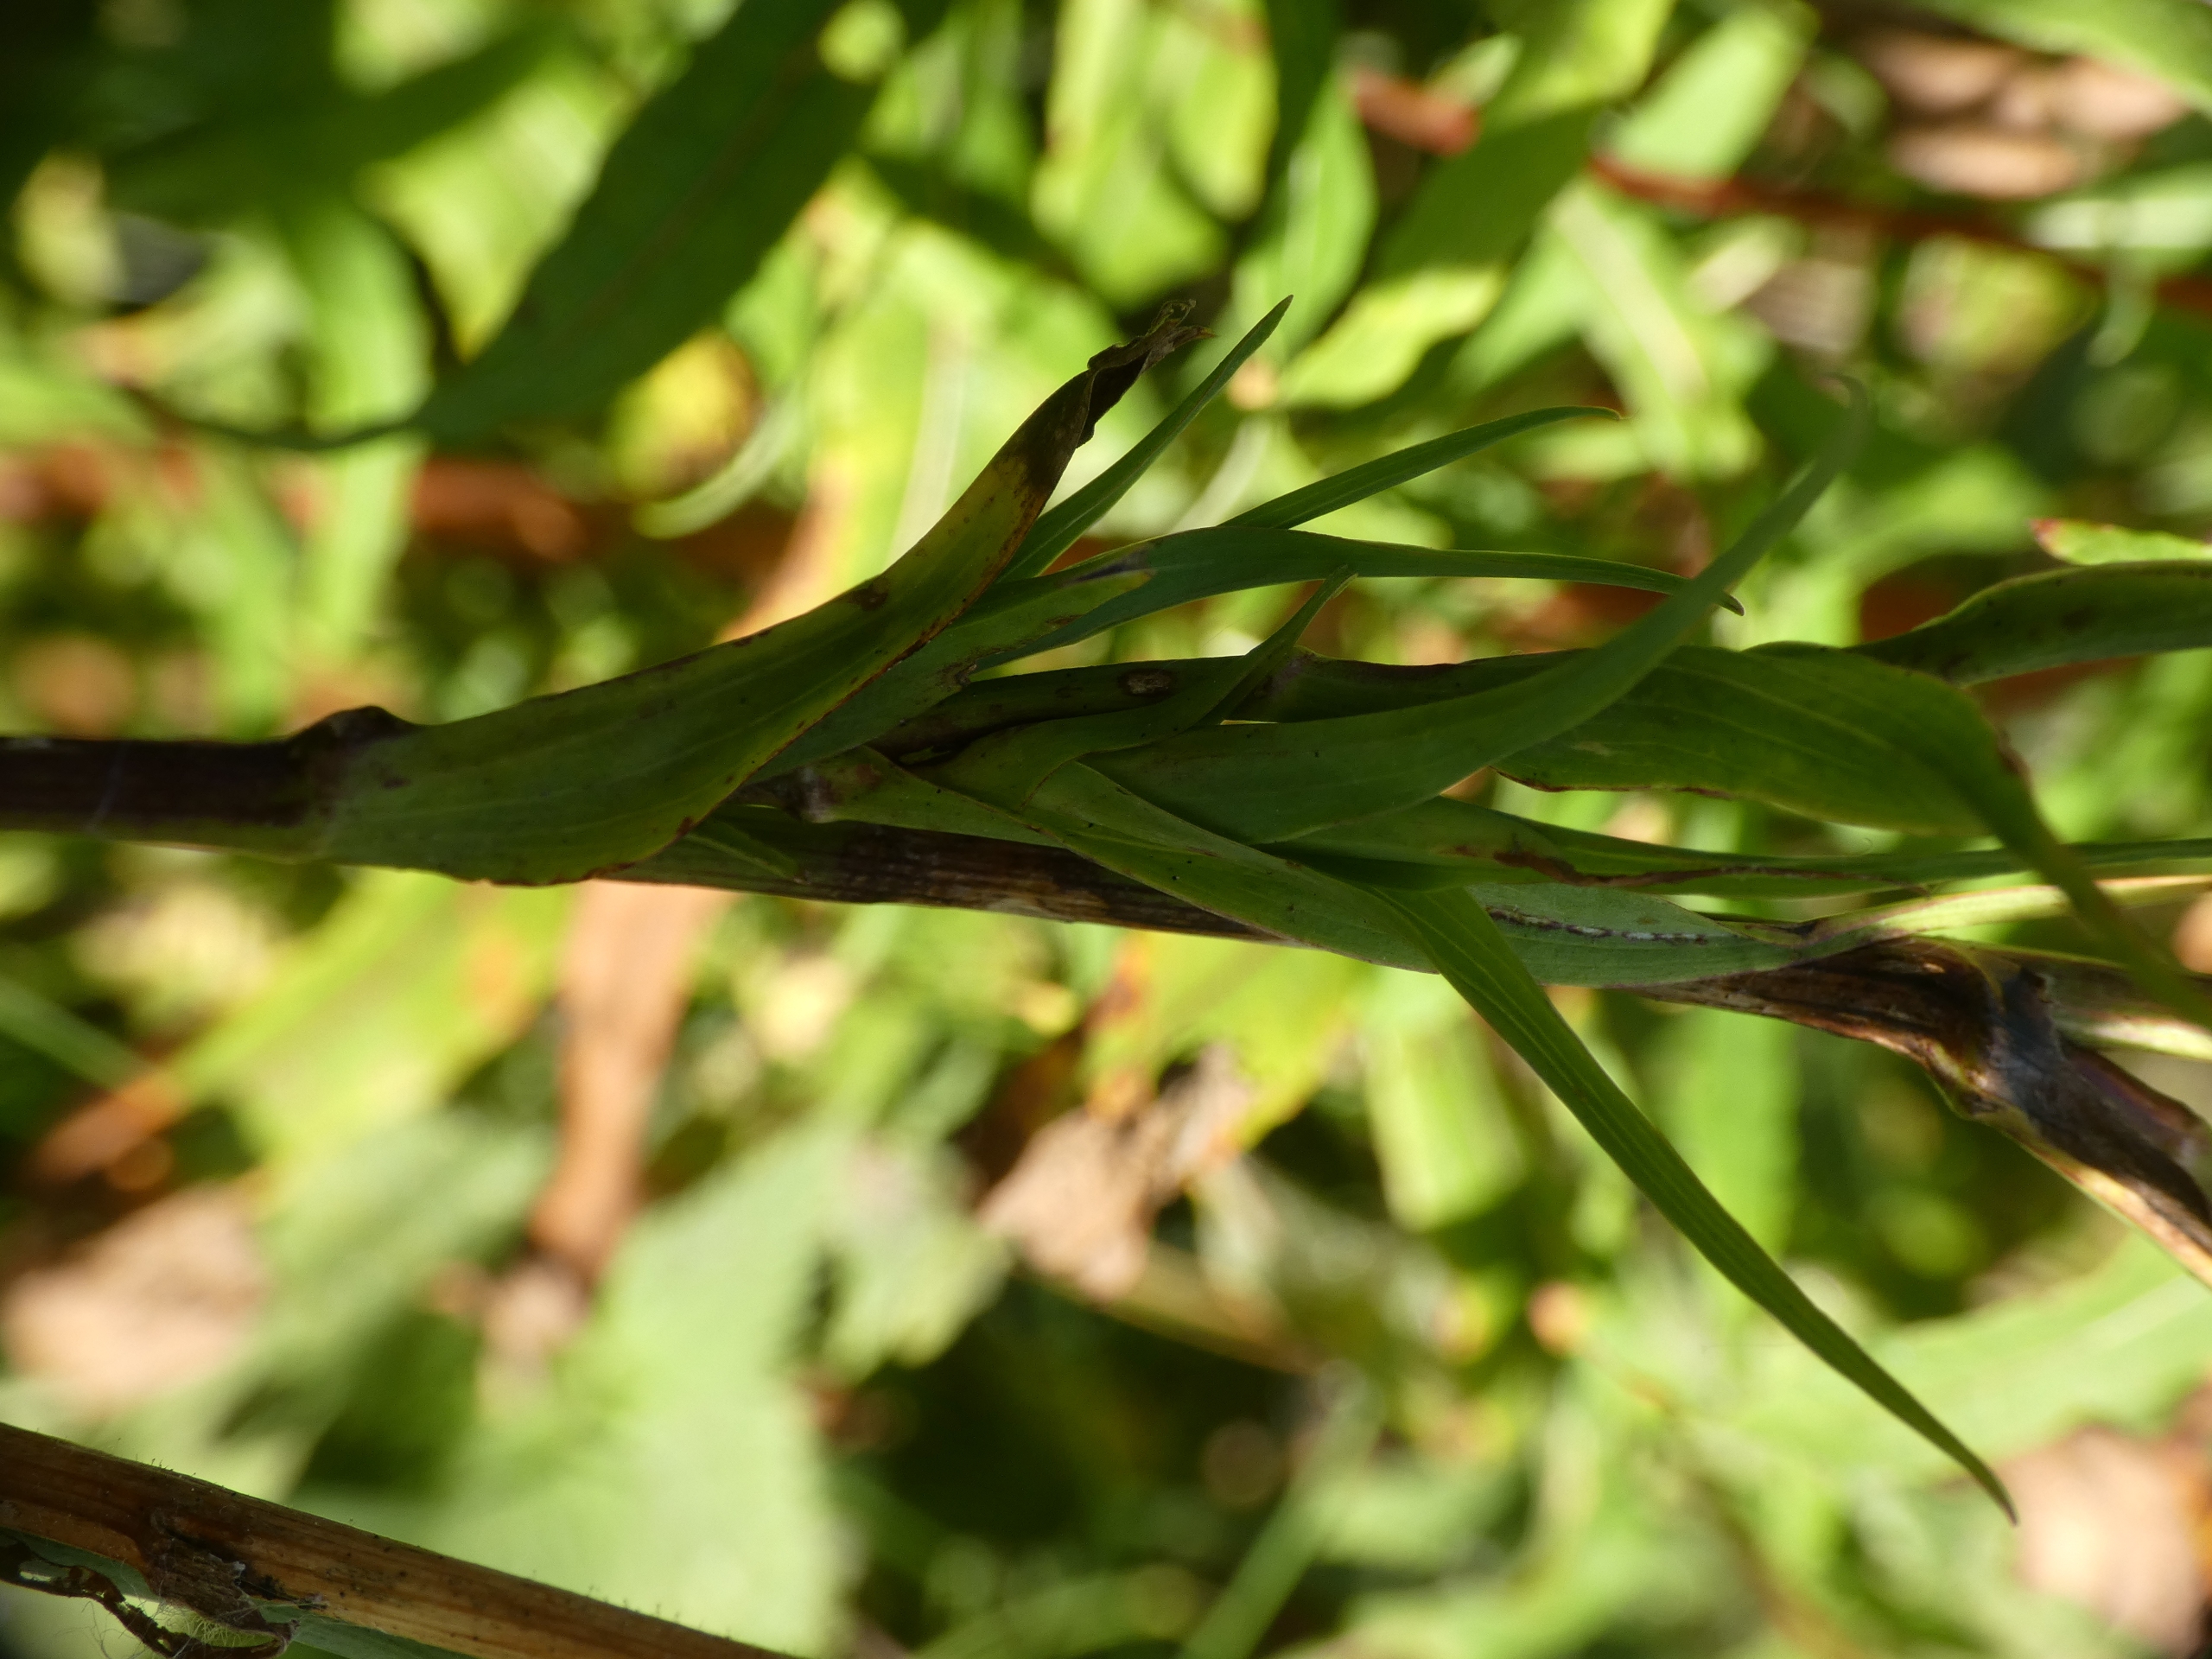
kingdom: Plantae
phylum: Tracheophyta
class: Magnoliopsida
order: Asterales
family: Asteraceae
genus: Tragopogon
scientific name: Tragopogon minor
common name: Småkronet gedeskæg
